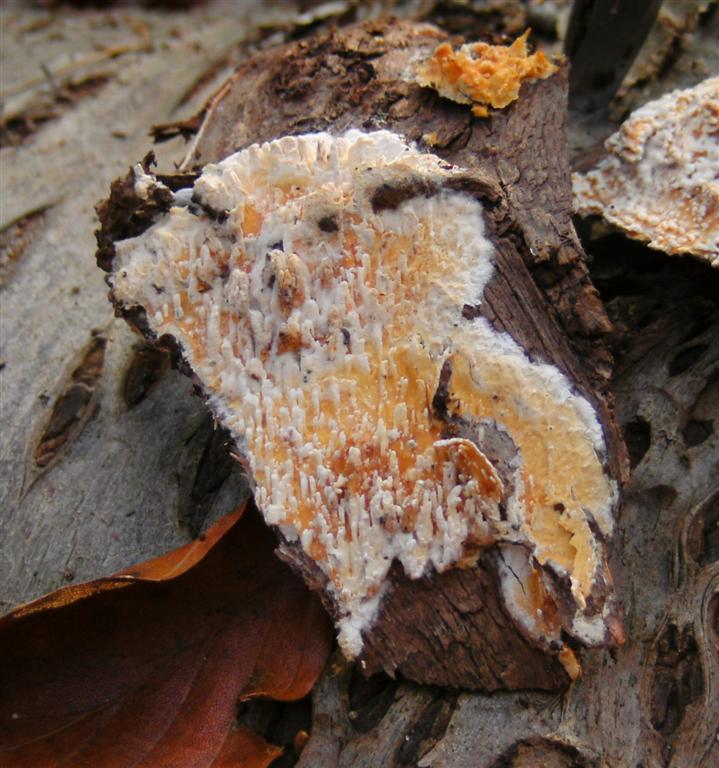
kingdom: Fungi
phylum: Basidiomycota
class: Agaricomycetes
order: Hymenochaetales
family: Schizoporaceae
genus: Xylodon
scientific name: Xylodon radula
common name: grovtandet kalkskind
